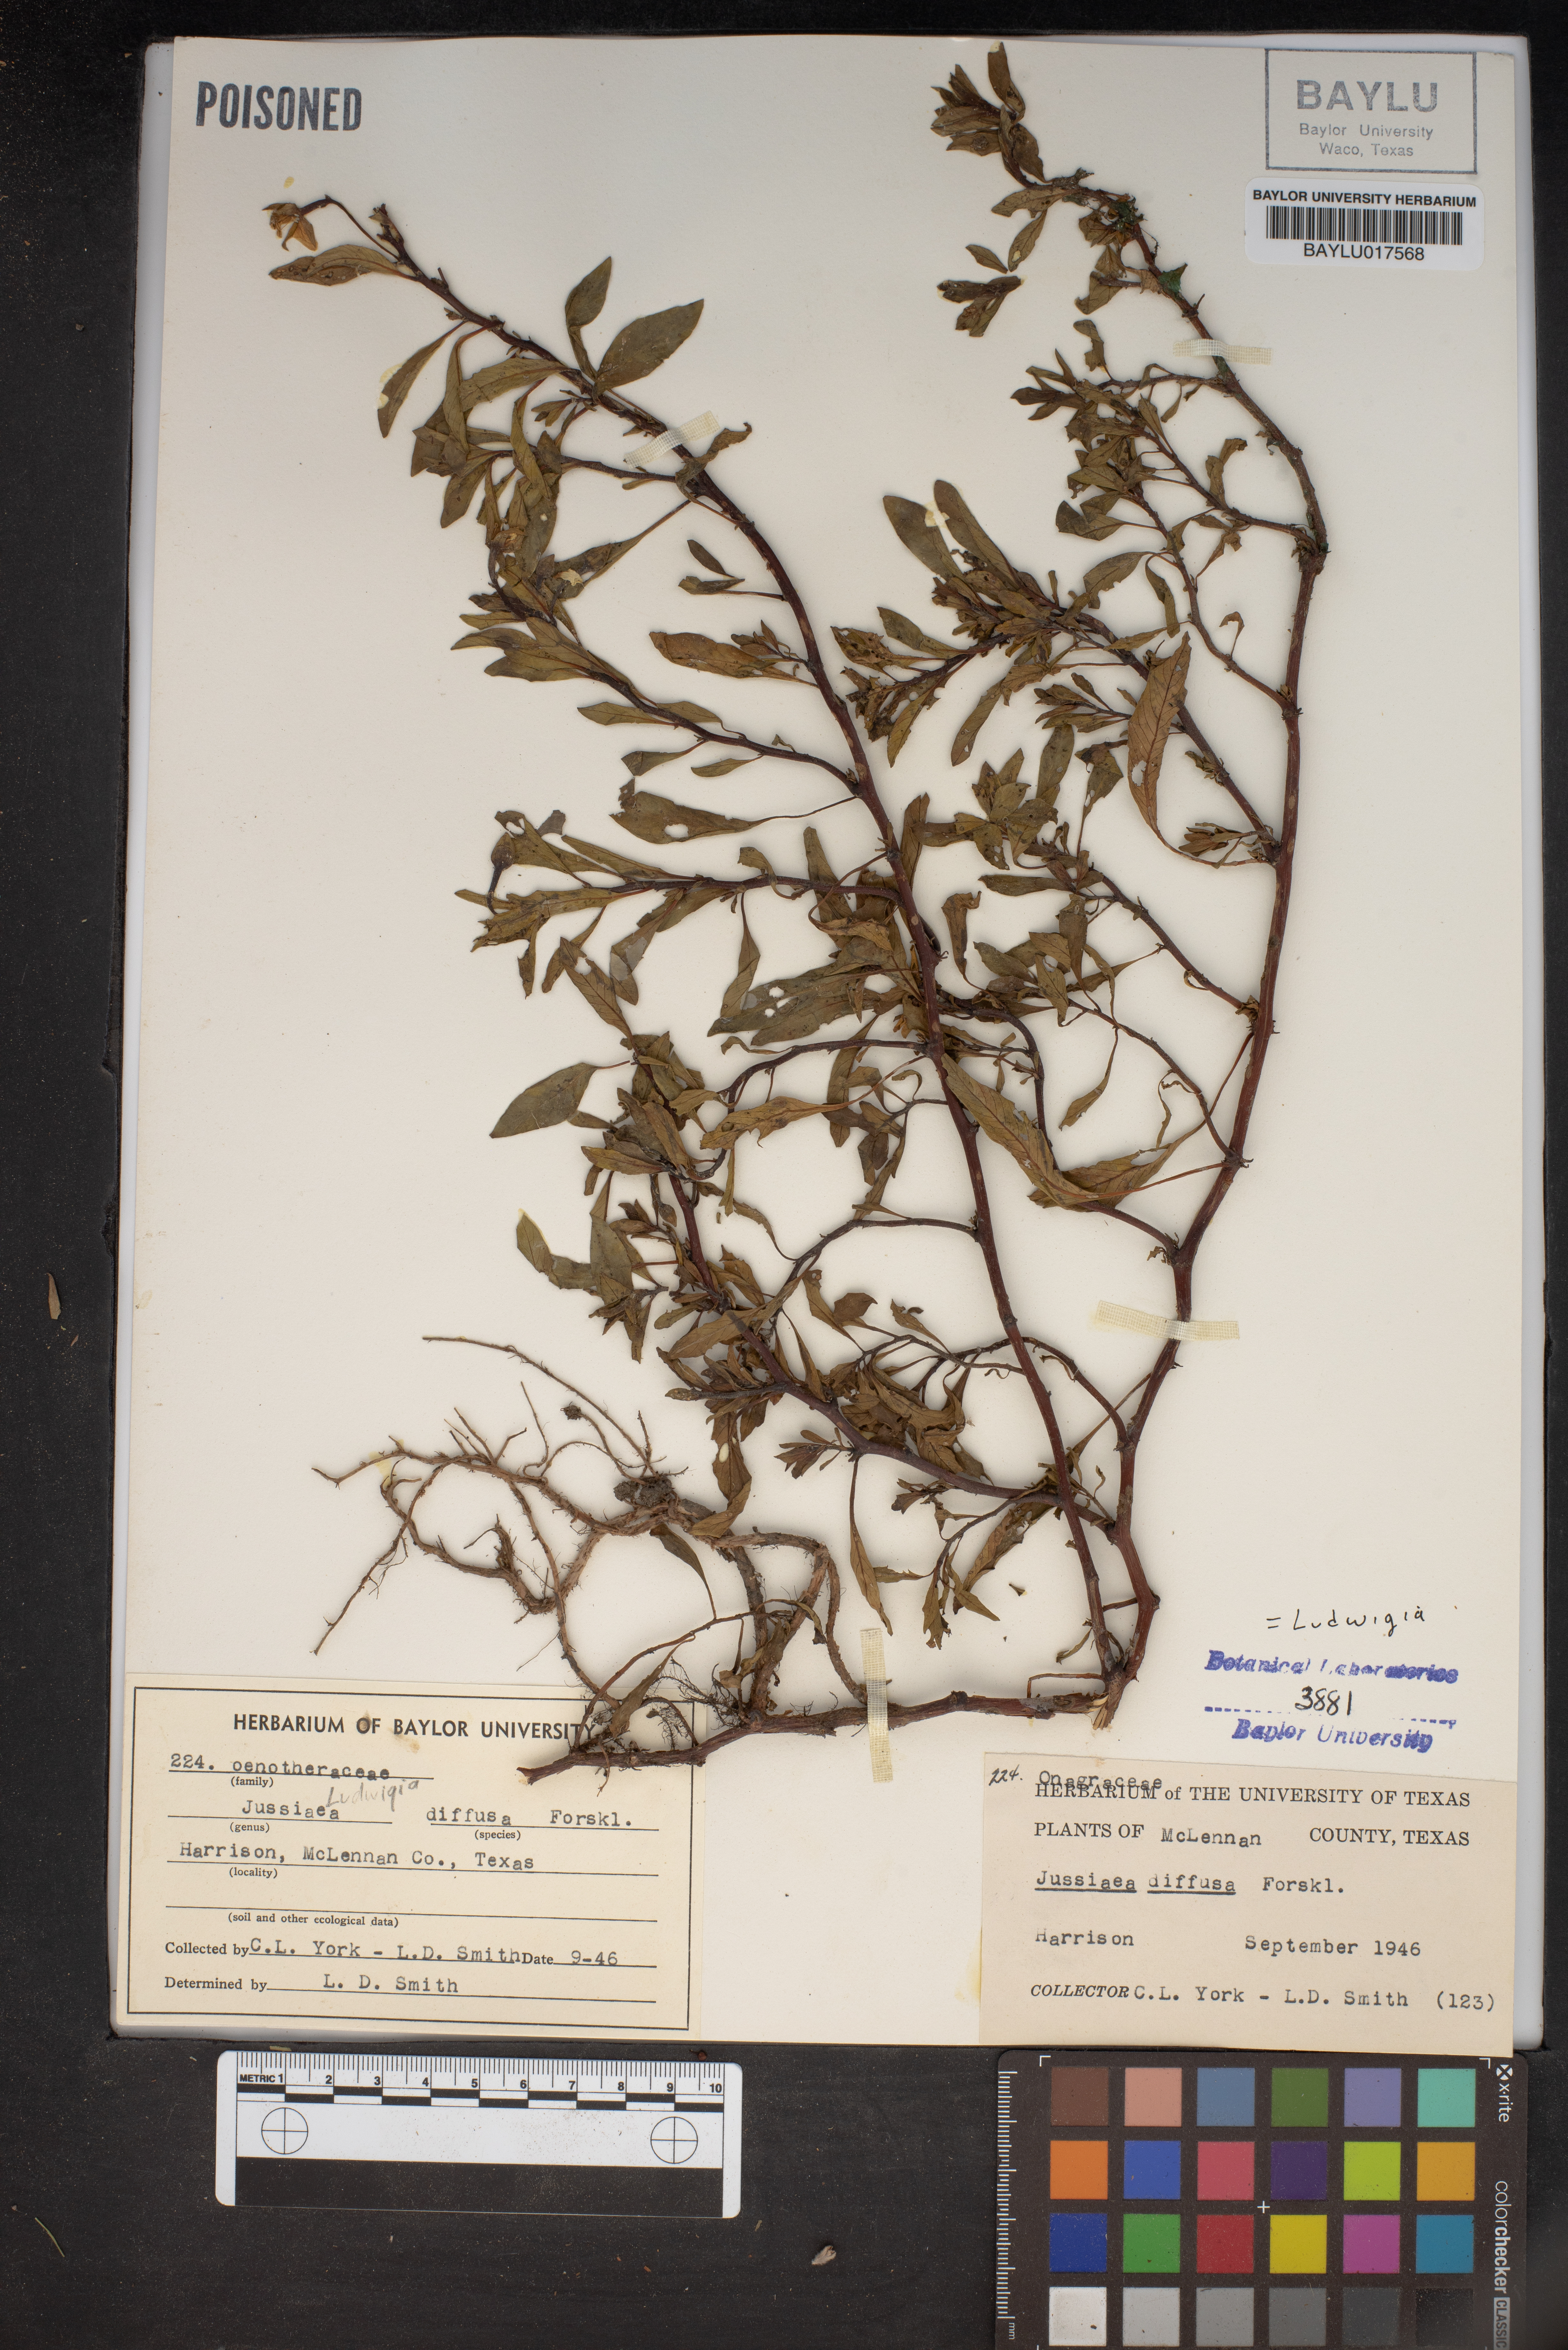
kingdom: Plantae
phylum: Tracheophyta
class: Magnoliopsida
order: Myrtales
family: Onagraceae
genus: Ludwigia
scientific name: Ludwigia adscendens
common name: Creeping water primrose
